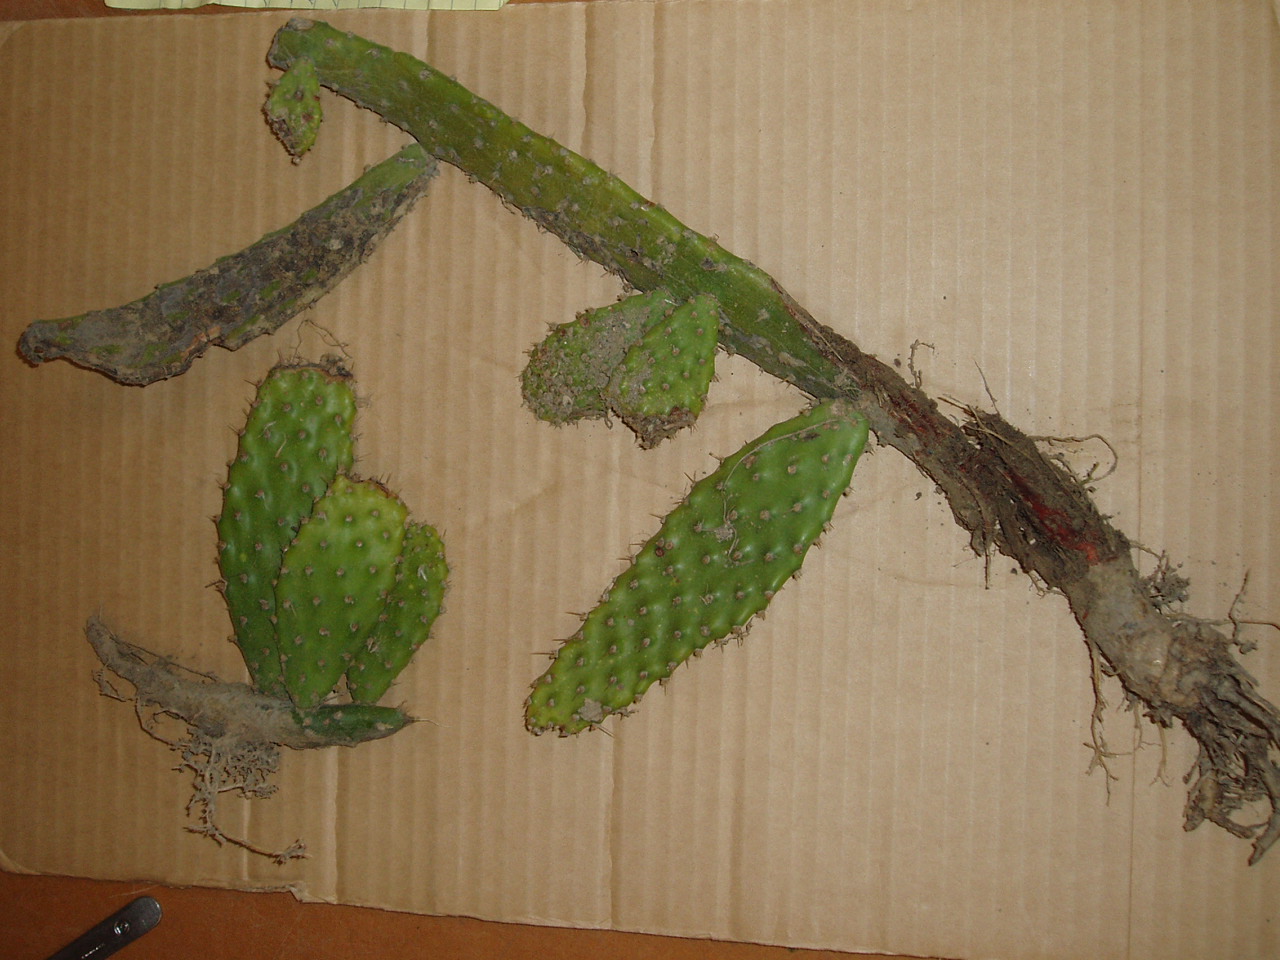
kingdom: Plantae
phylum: Tracheophyta
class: Magnoliopsida
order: Caryophyllales
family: Cactaceae
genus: Opuntia
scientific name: Opuntia monacantha
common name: Common pricklypear
